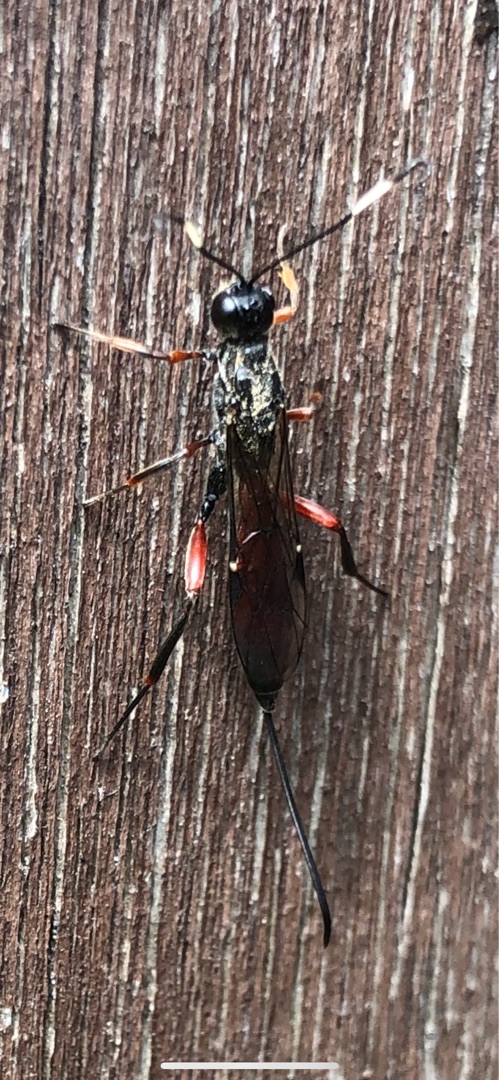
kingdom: Animalia
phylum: Arthropoda
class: Insecta
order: Hymenoptera
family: Ichneumonidae
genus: Xorides
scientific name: Xorides
